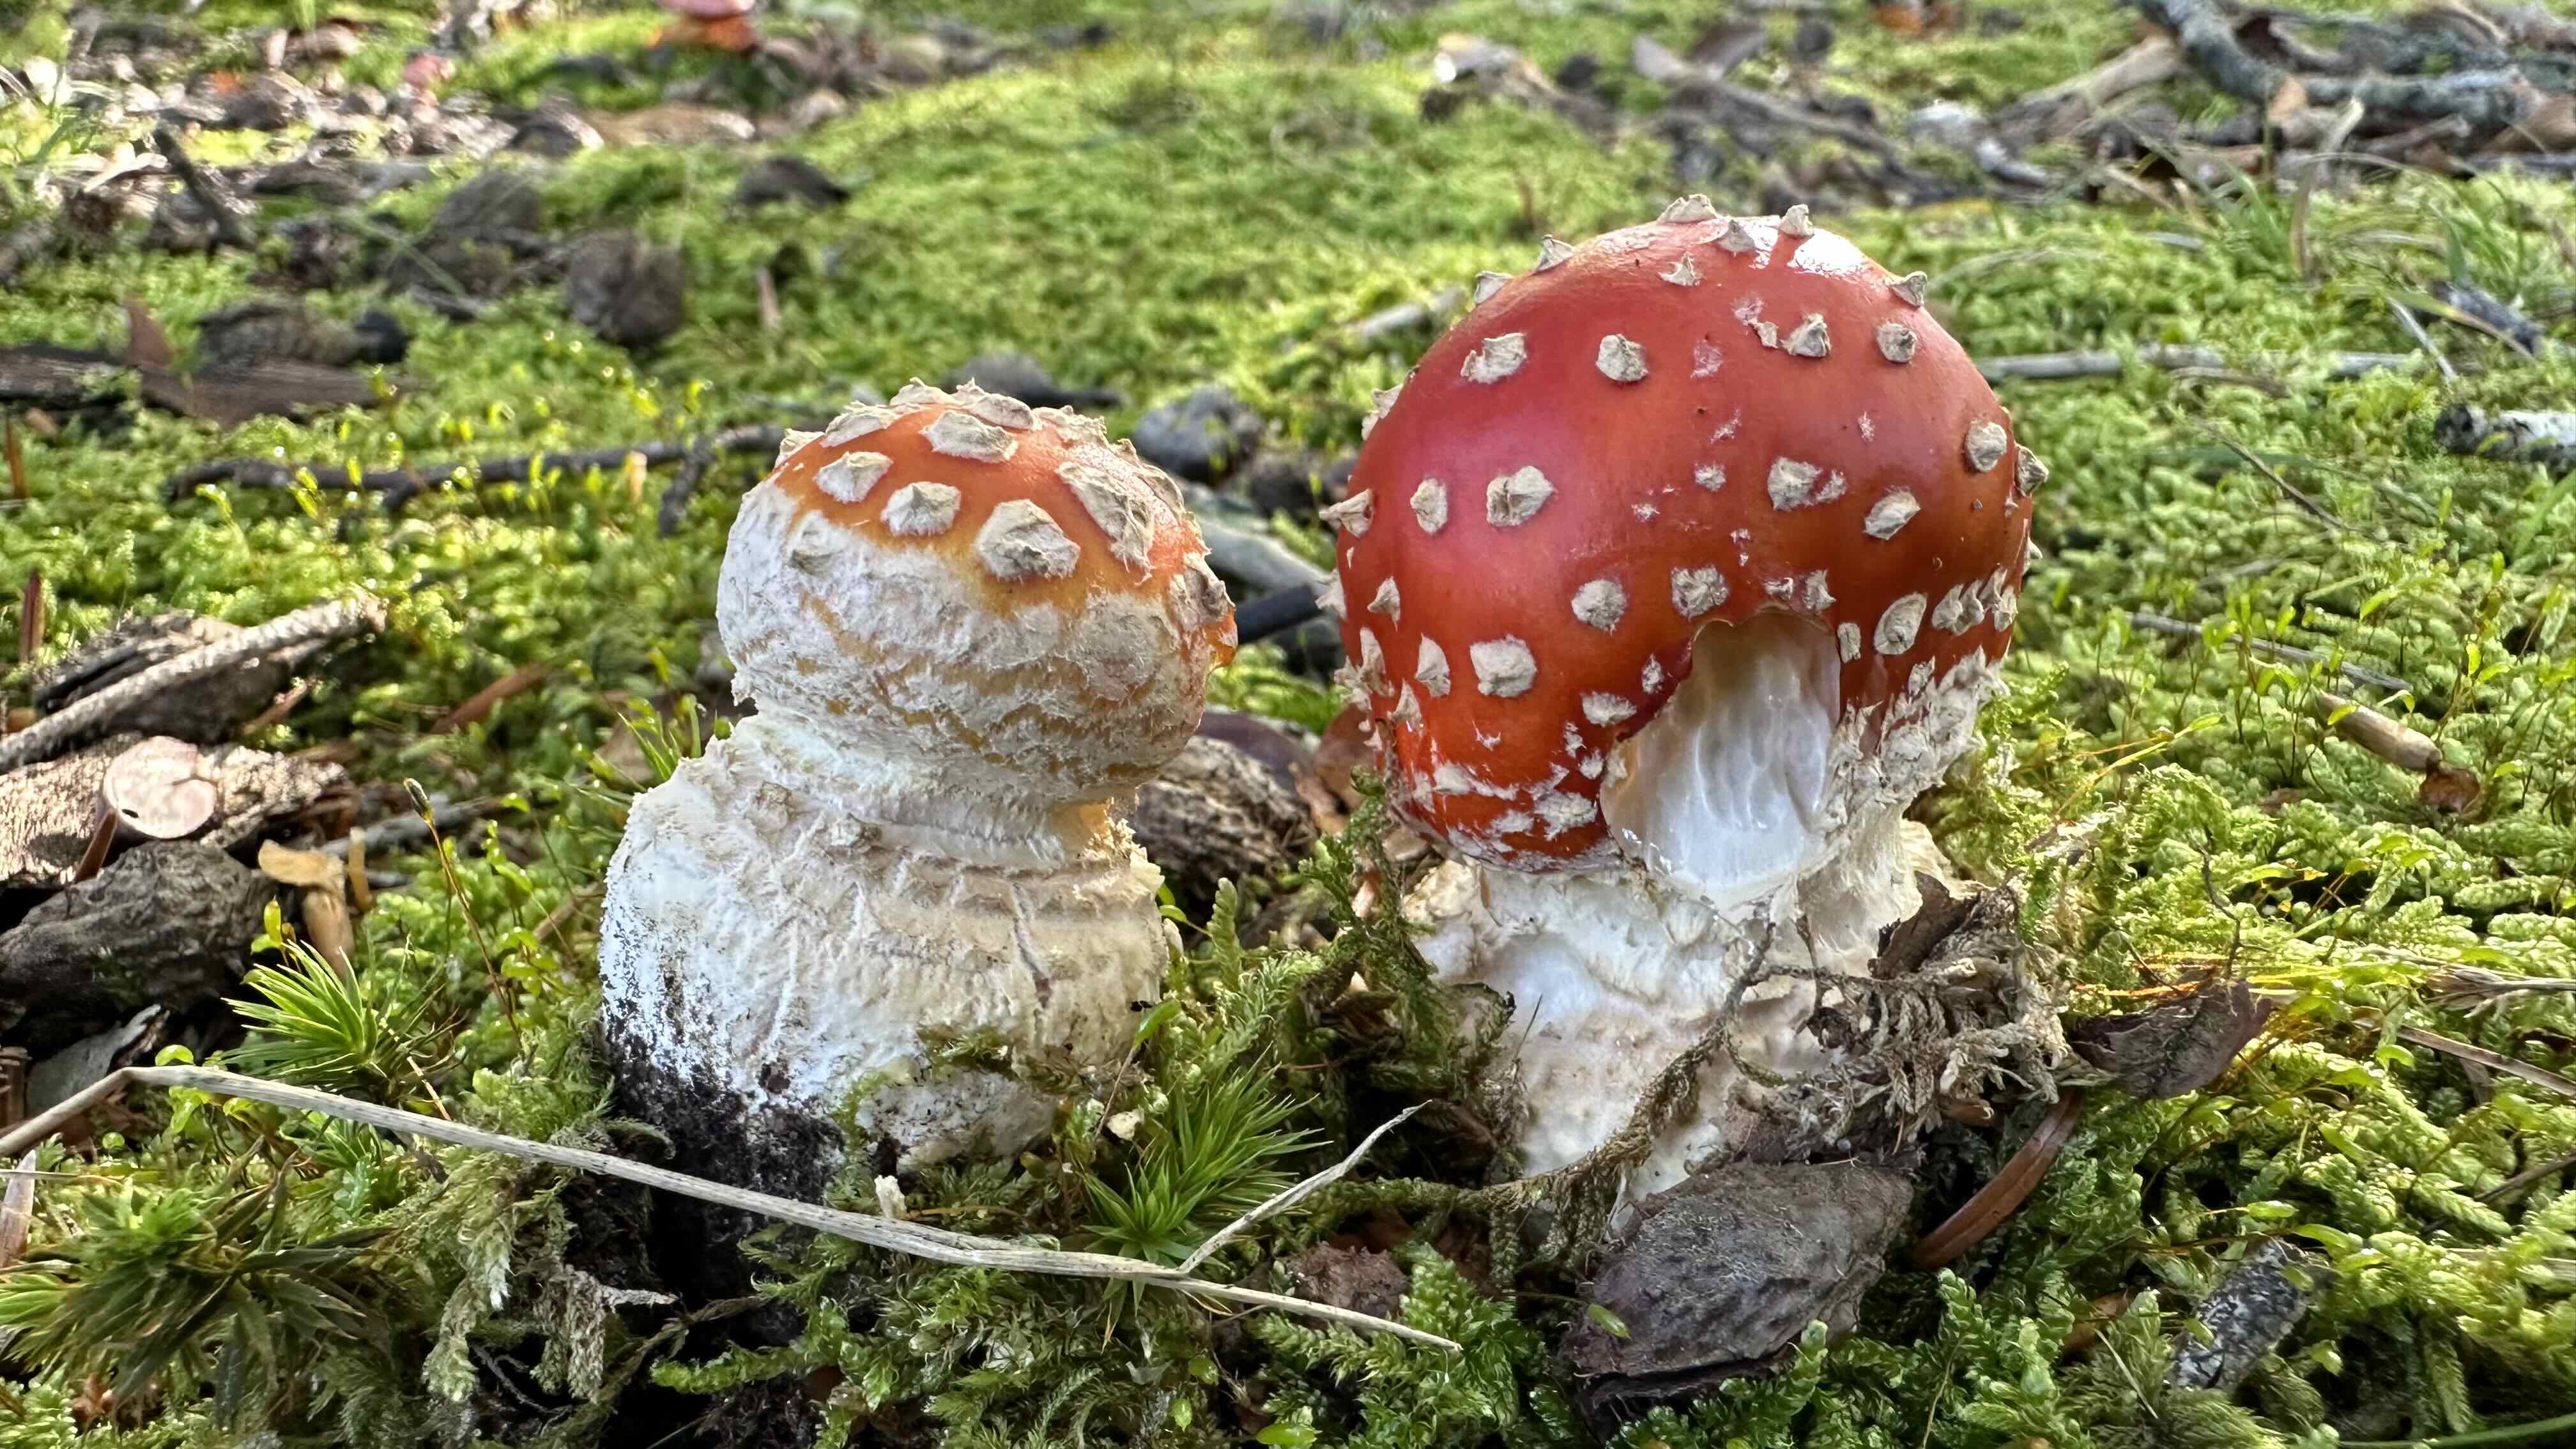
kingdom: Fungi
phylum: Basidiomycota
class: Agaricomycetes
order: Agaricales
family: Amanitaceae
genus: Amanita
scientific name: Amanita muscaria
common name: rød fluesvamp
